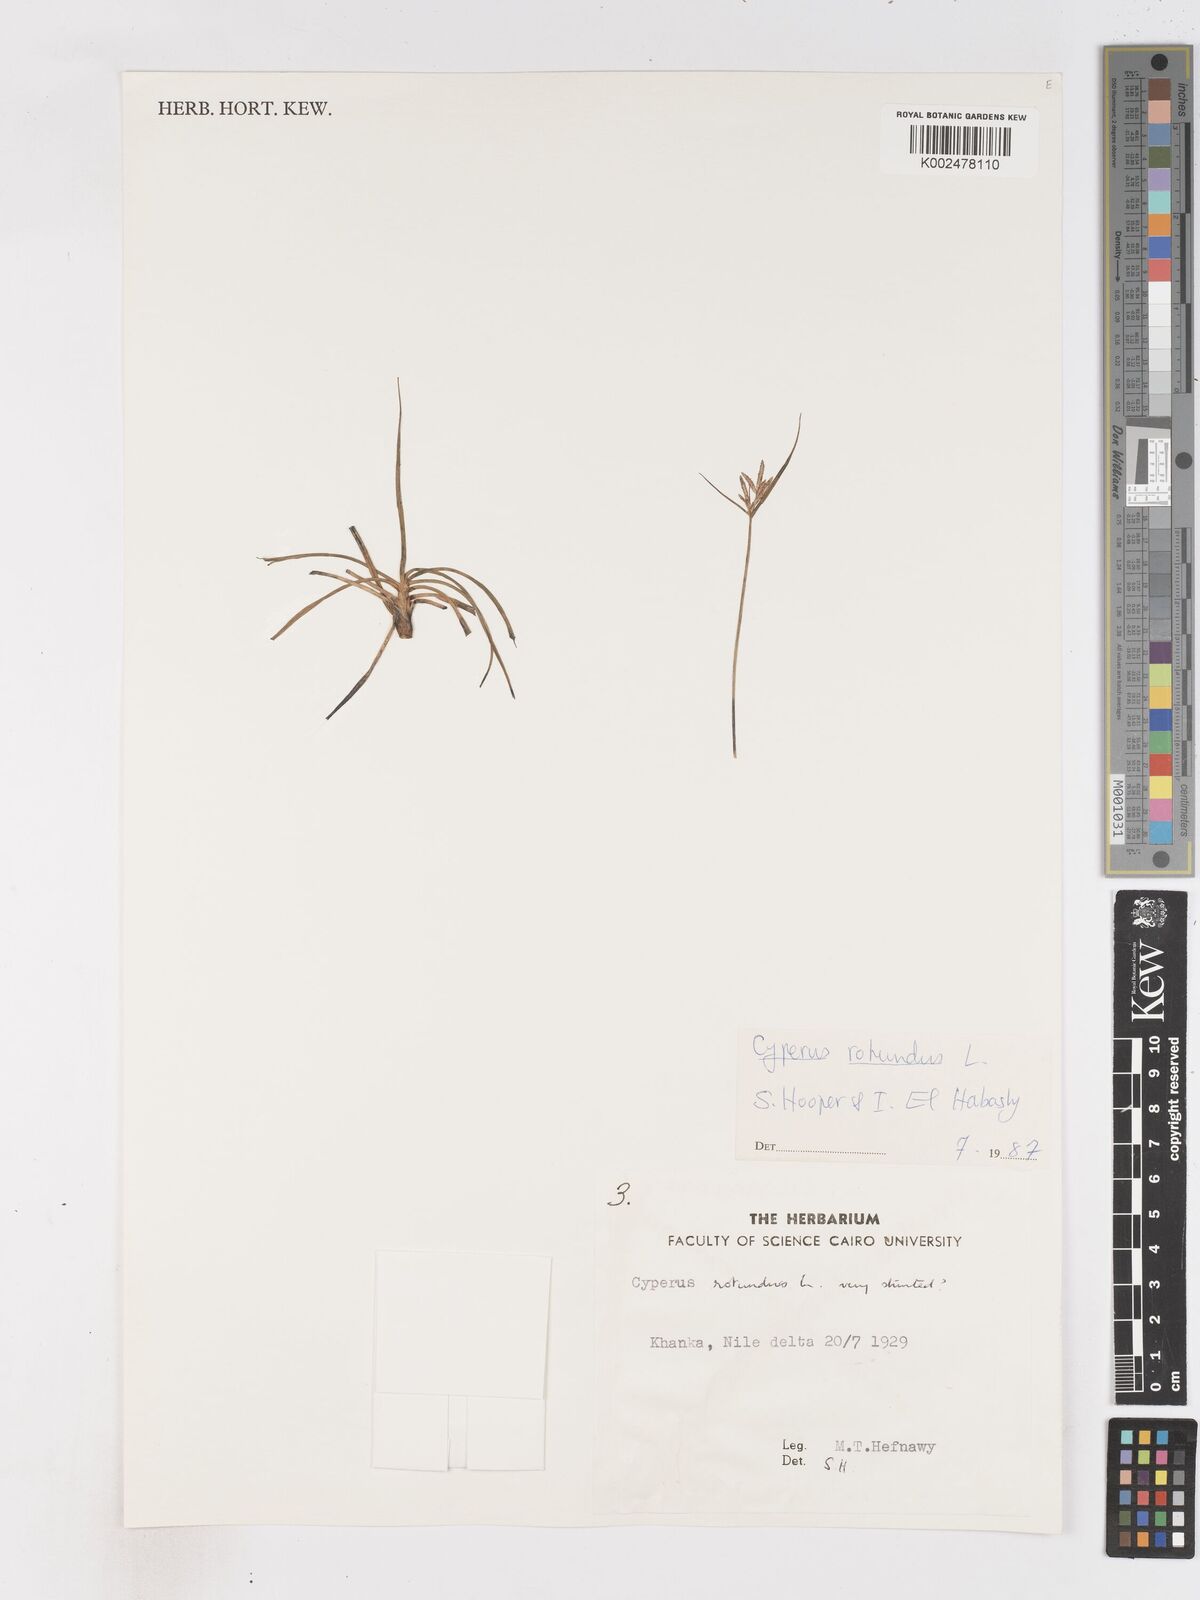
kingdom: Plantae
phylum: Tracheophyta
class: Liliopsida
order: Poales
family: Cyperaceae
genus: Cyperus
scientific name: Cyperus rotundus
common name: Nutgrass
